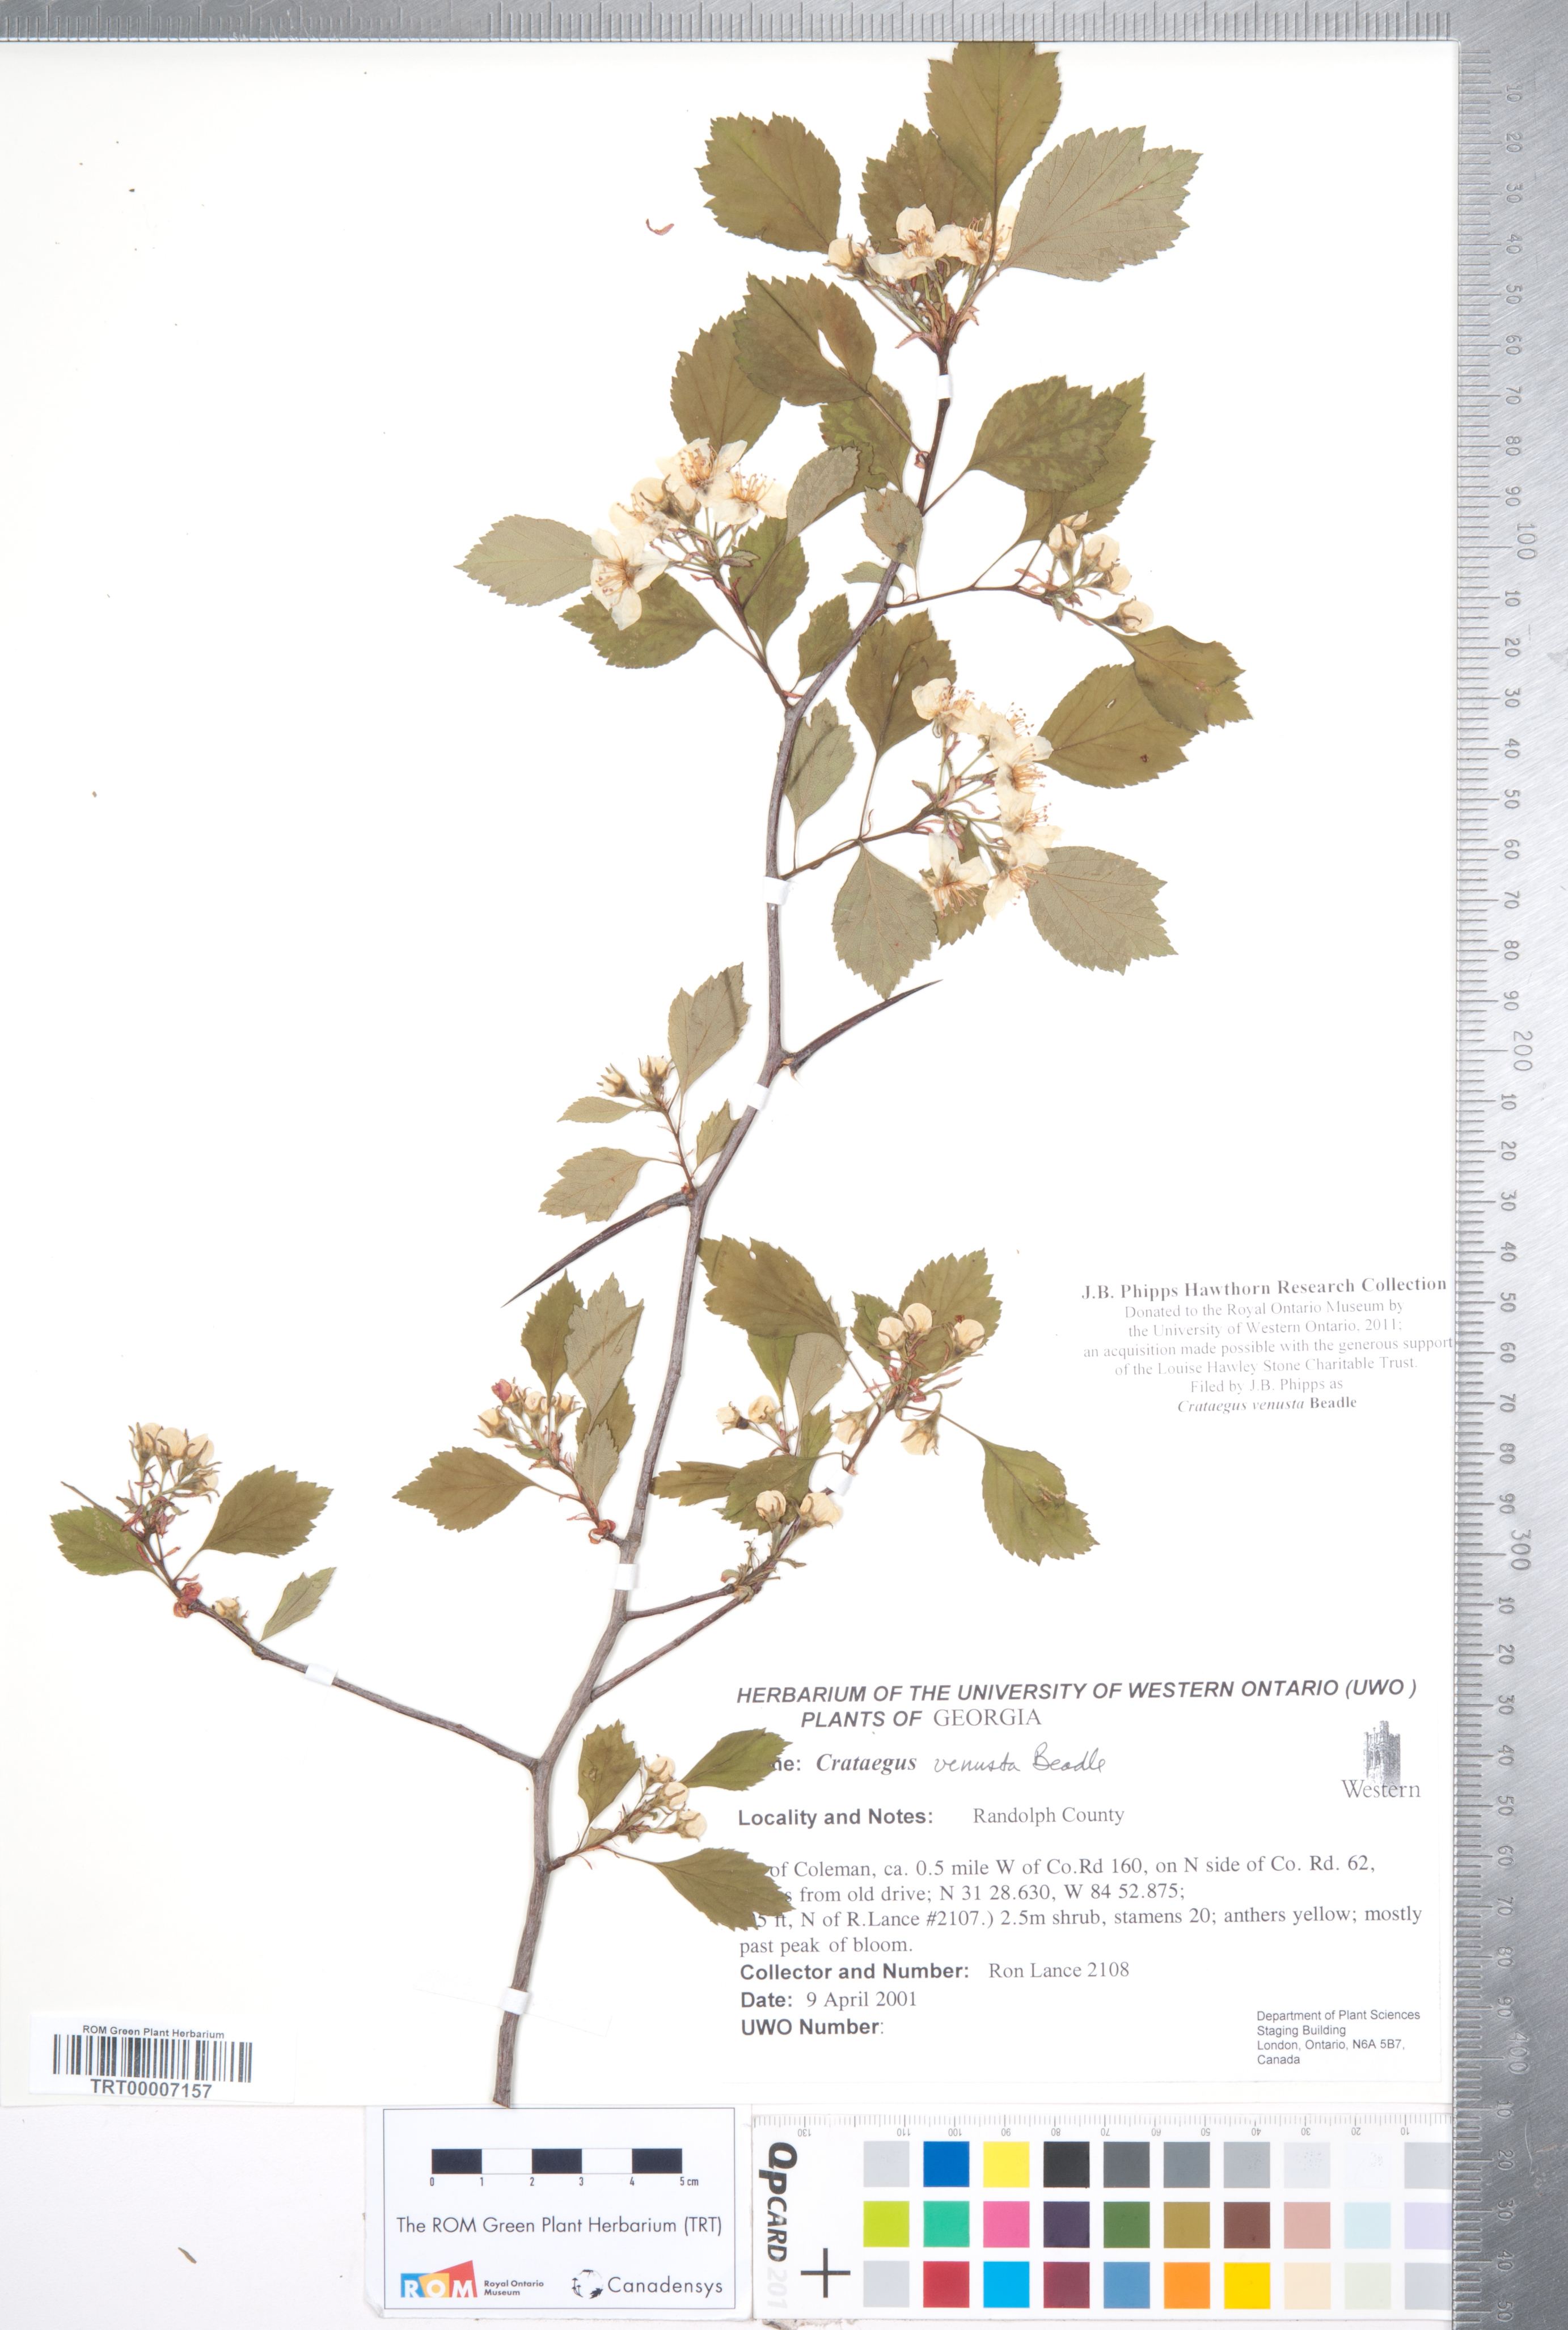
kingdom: Plantae
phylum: Tracheophyta
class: Magnoliopsida
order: Rosales
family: Rosaceae
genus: Crataegus
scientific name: Crataegus venusta
